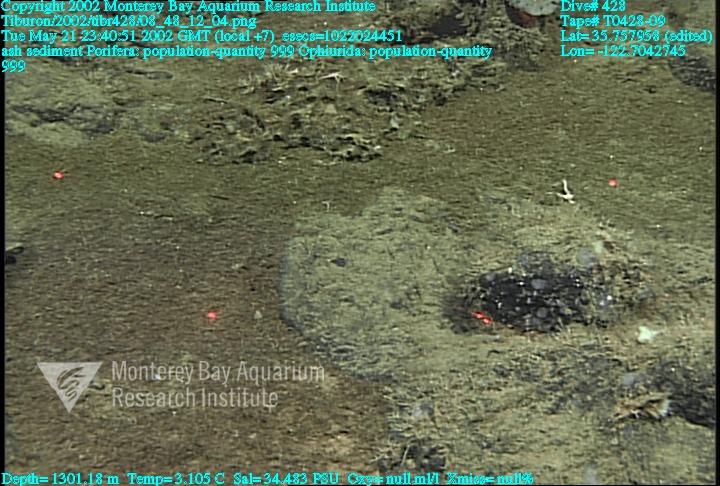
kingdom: Animalia
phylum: Porifera
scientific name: Porifera
